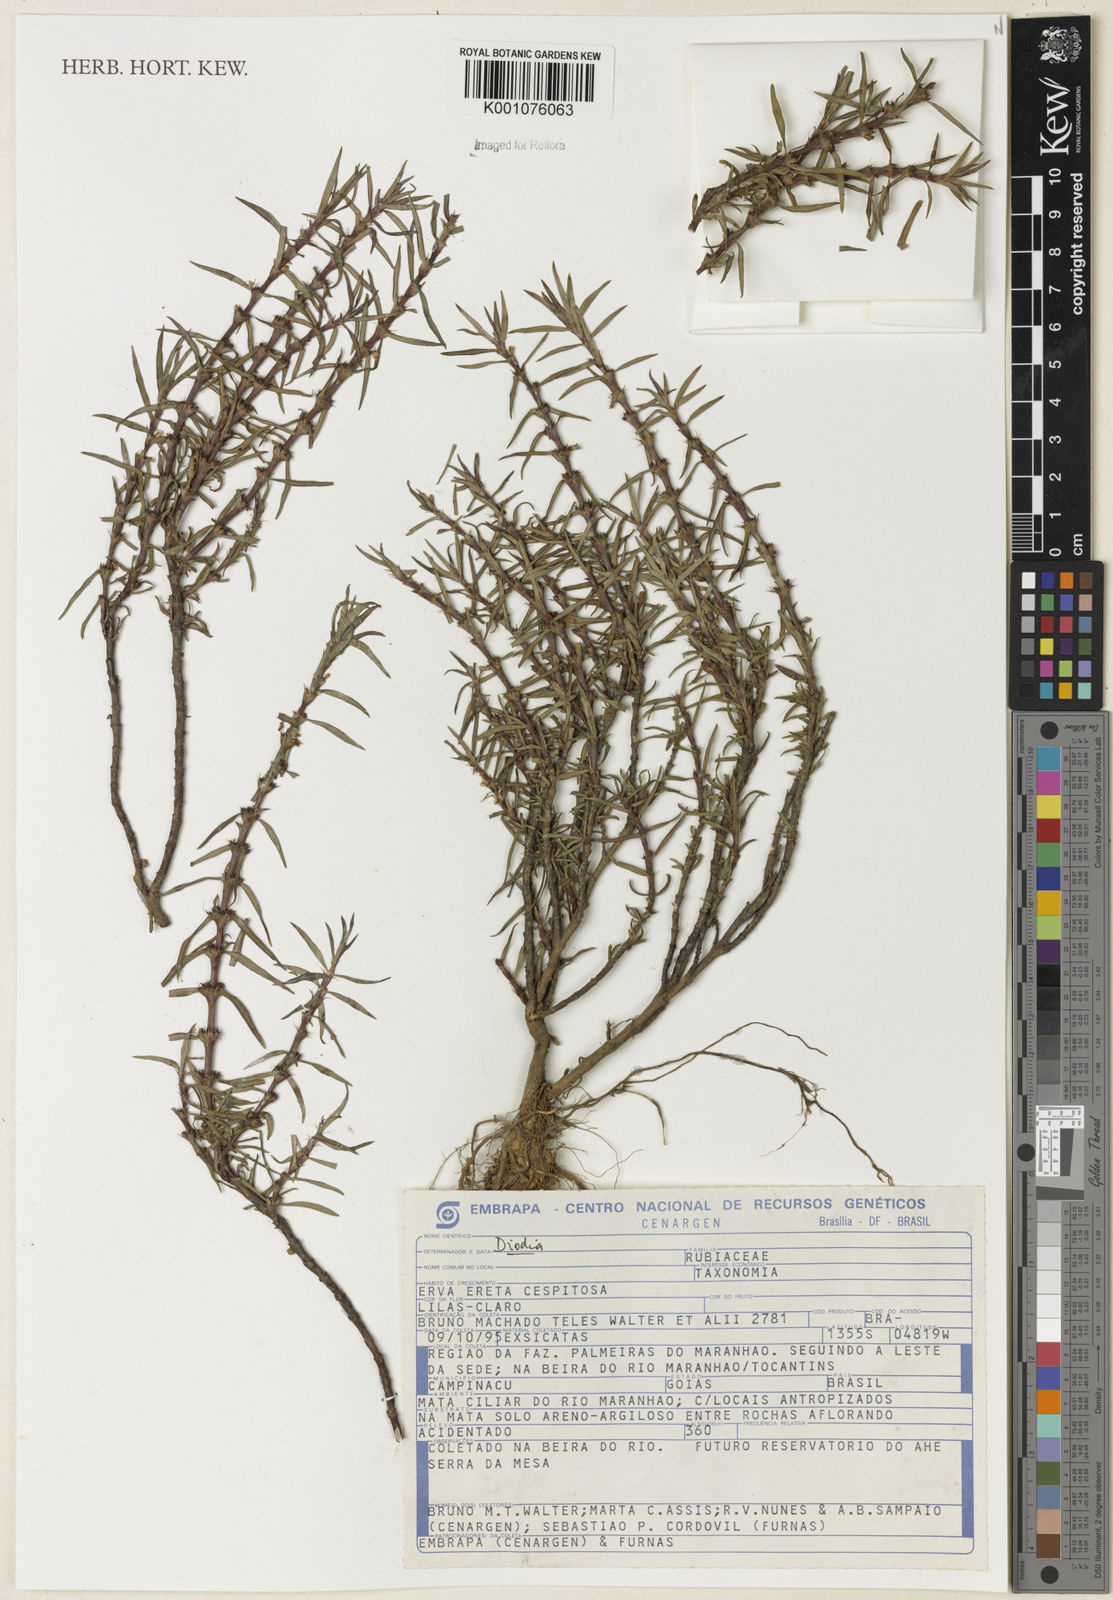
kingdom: Plantae
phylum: Tracheophyta
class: Magnoliopsida
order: Gentianales
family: Rubiaceae
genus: Diodia
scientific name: Diodia
